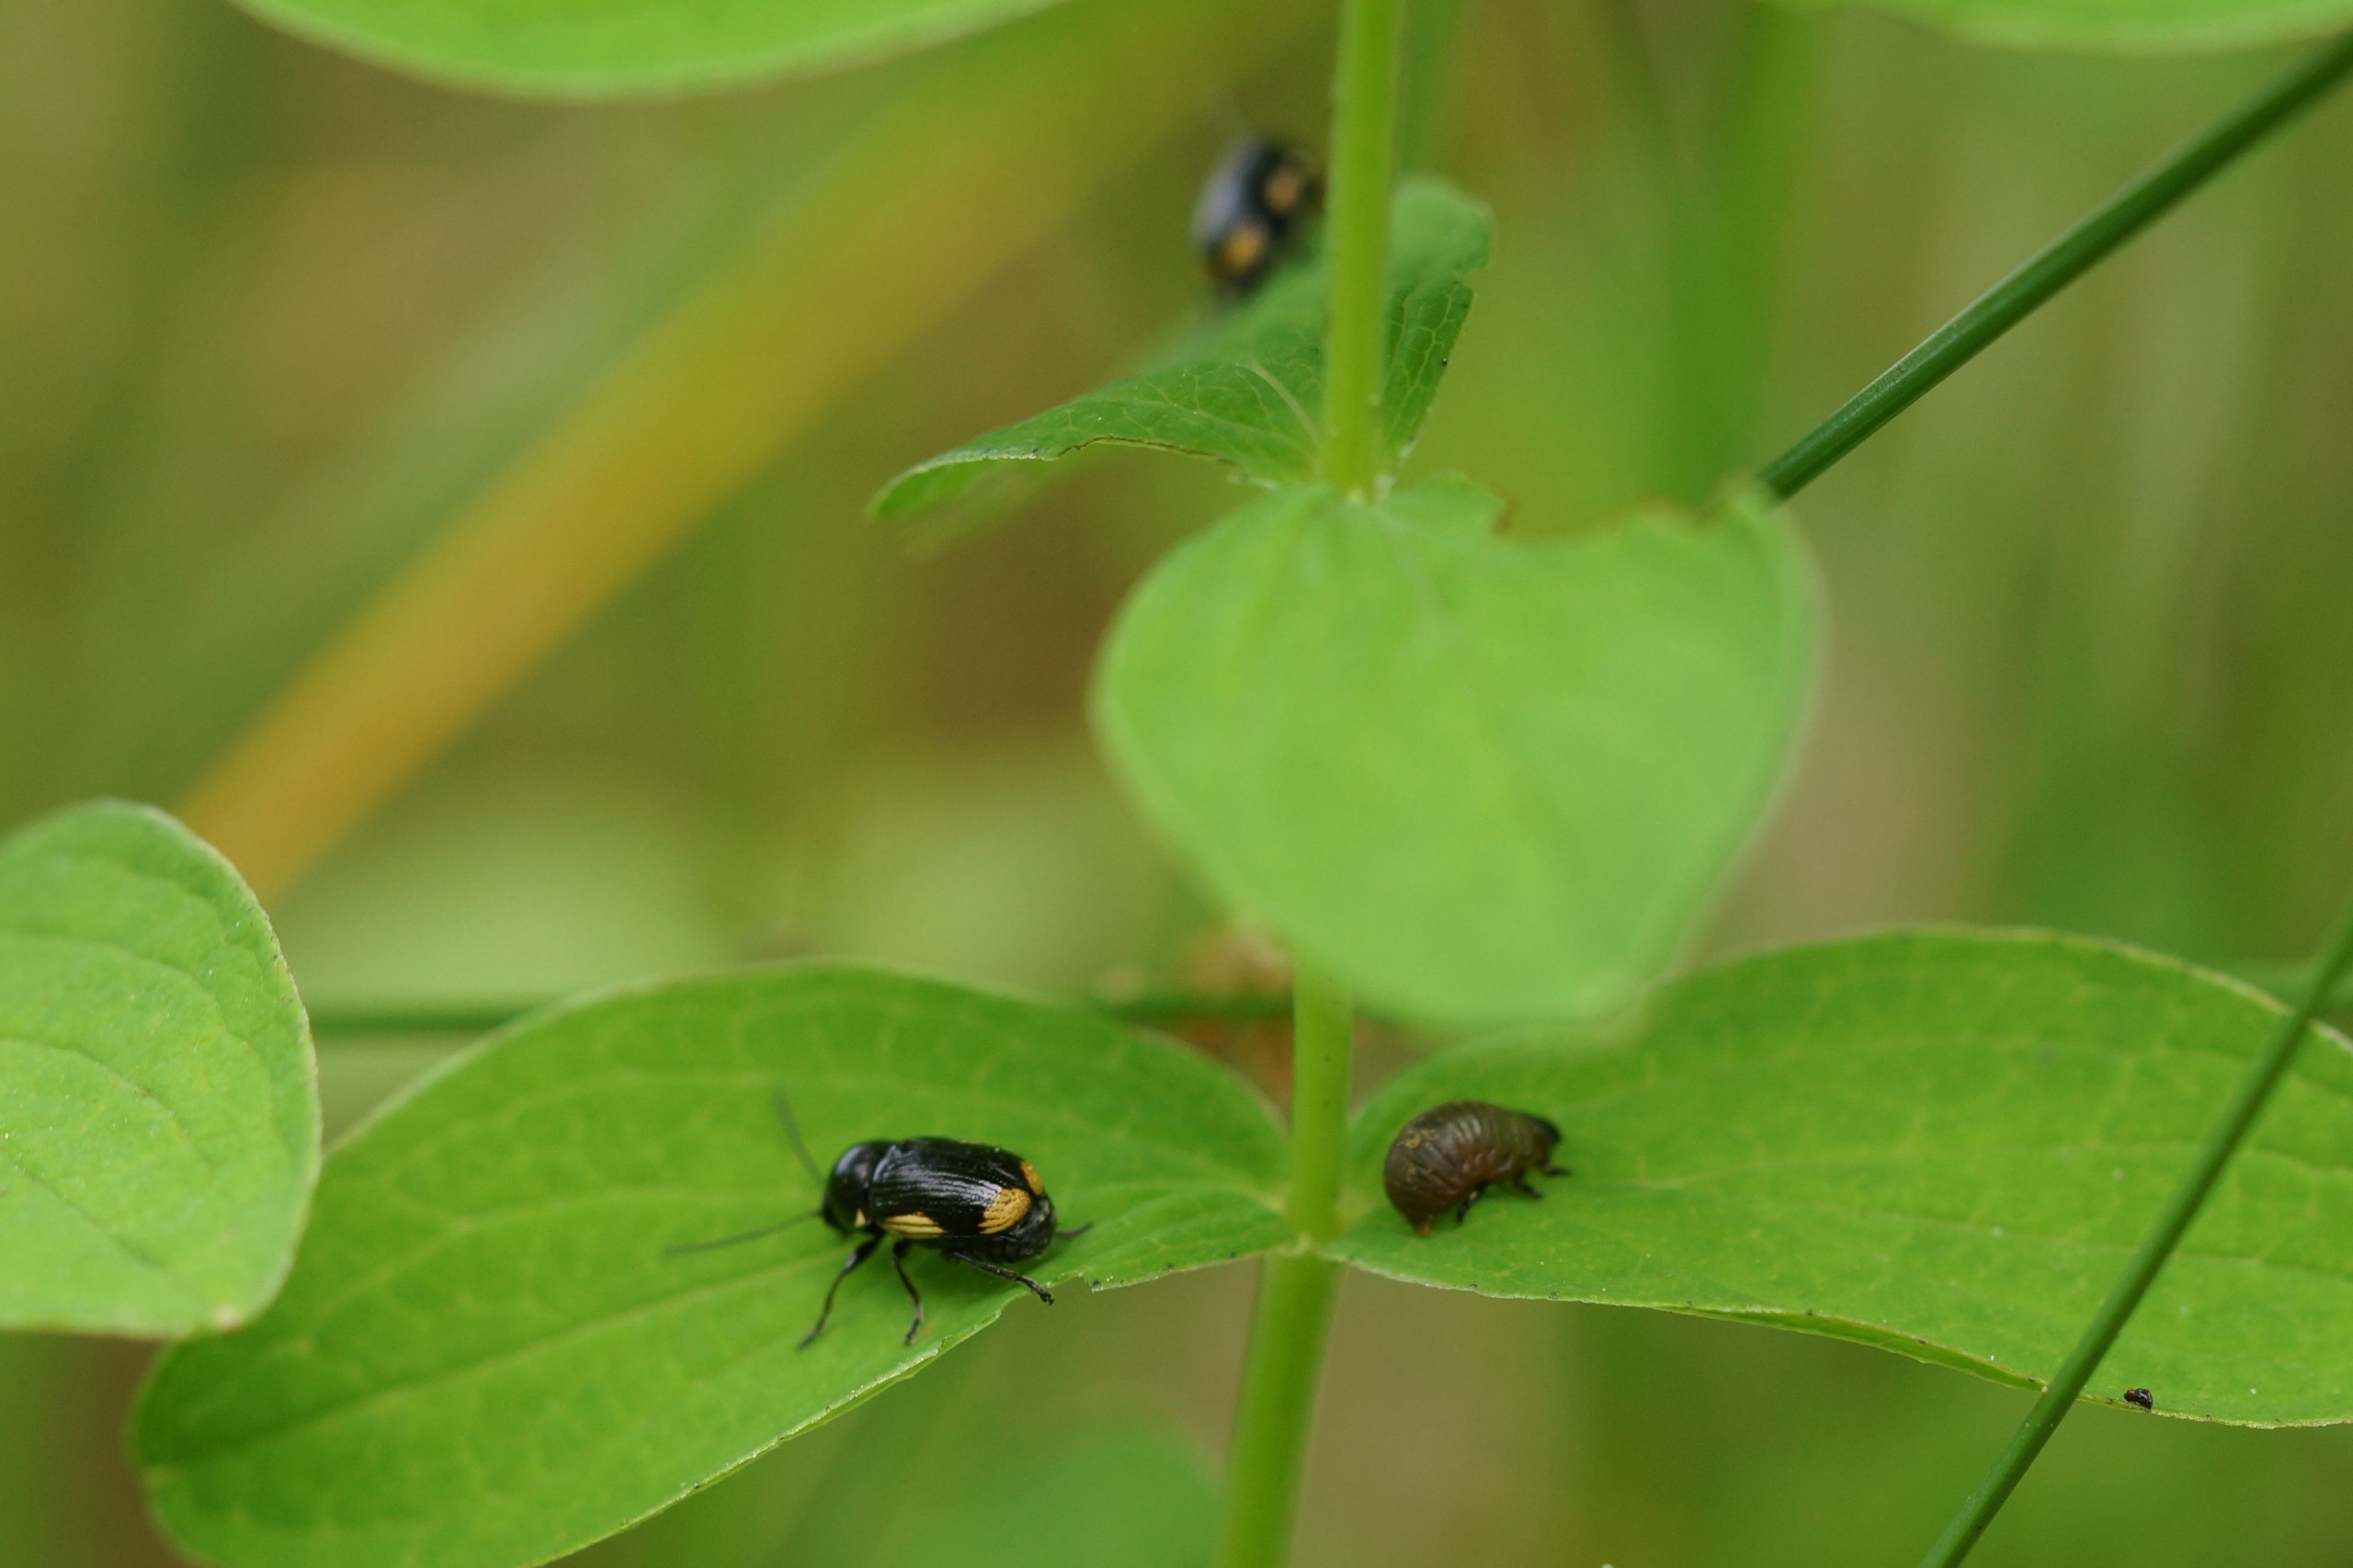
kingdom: Animalia
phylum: Arthropoda
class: Insecta
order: Coleoptera
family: Chrysomelidae
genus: Cryptocephalus
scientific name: Cryptocephalus moraei
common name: Perikonfaldbille
